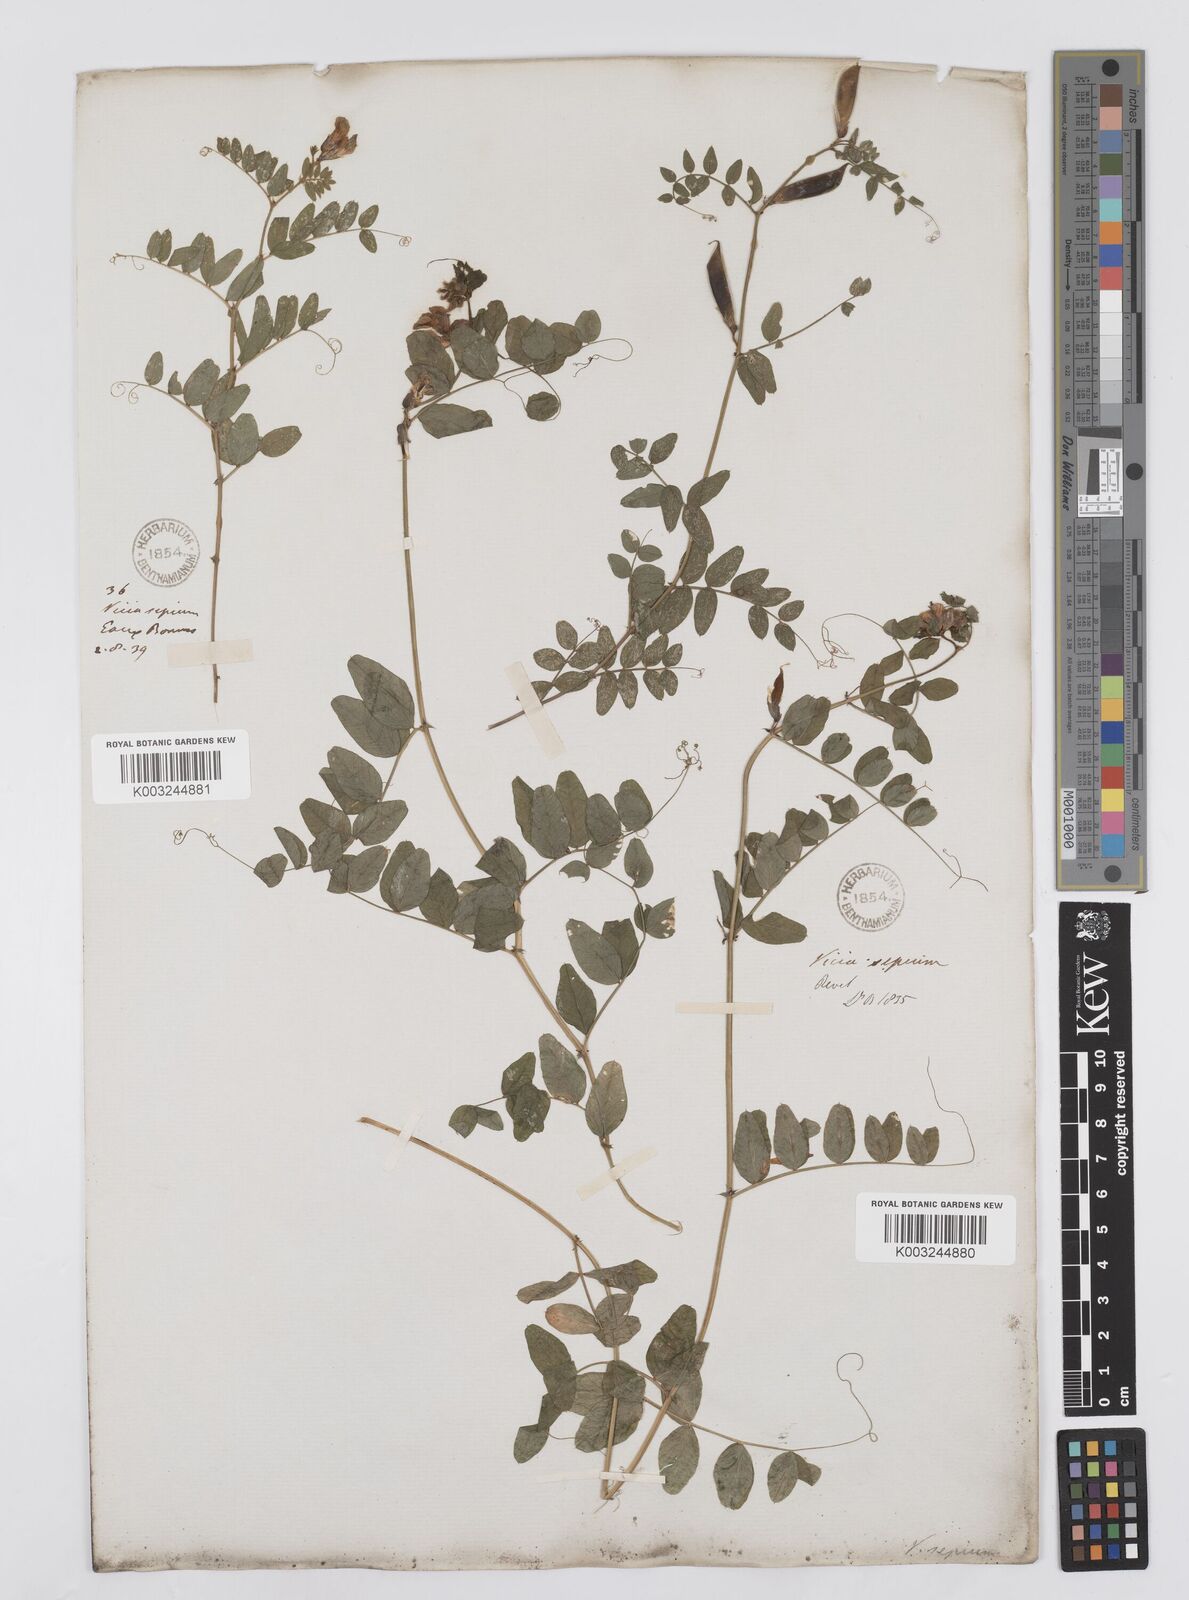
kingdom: Plantae
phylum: Tracheophyta
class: Magnoliopsida
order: Fabales
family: Fabaceae
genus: Vicia
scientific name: Vicia sepium
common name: Bush vetch
